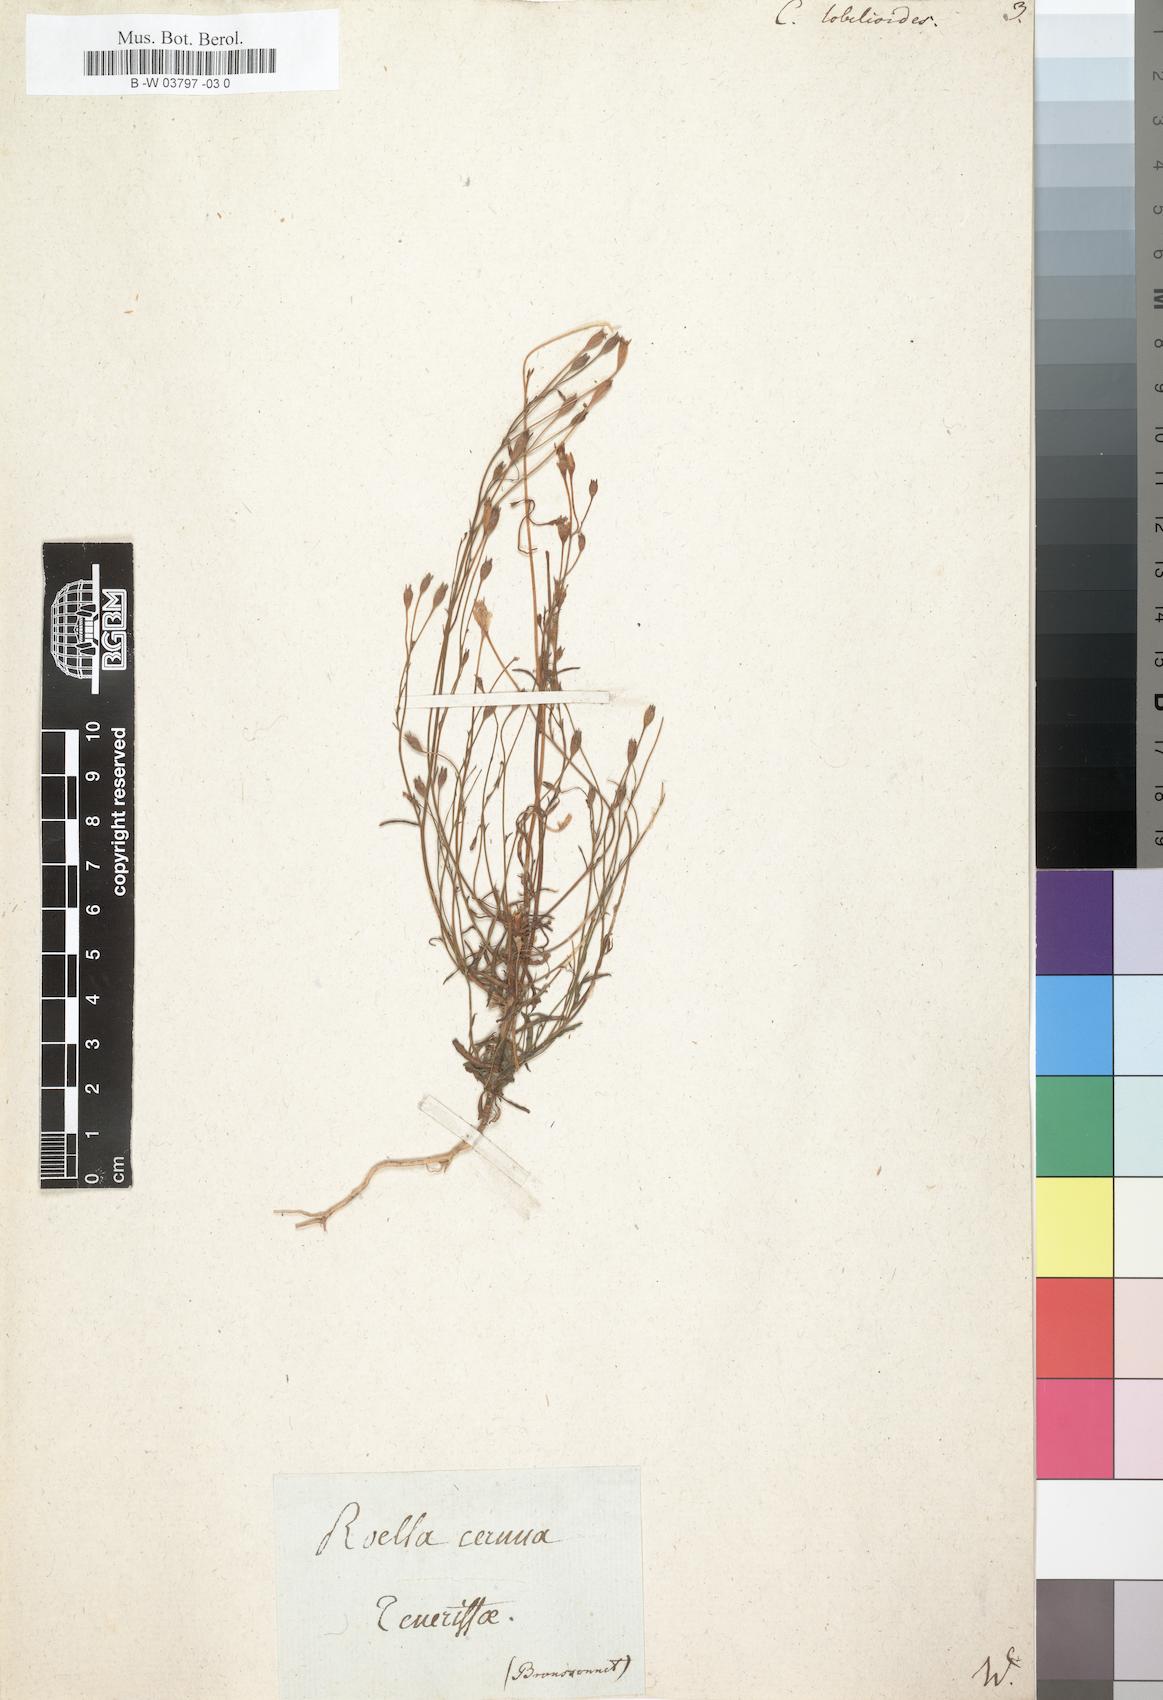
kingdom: Plantae
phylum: Tracheophyta
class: Magnoliopsida
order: Asterales
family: Campanulaceae
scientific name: Campanulaceae
